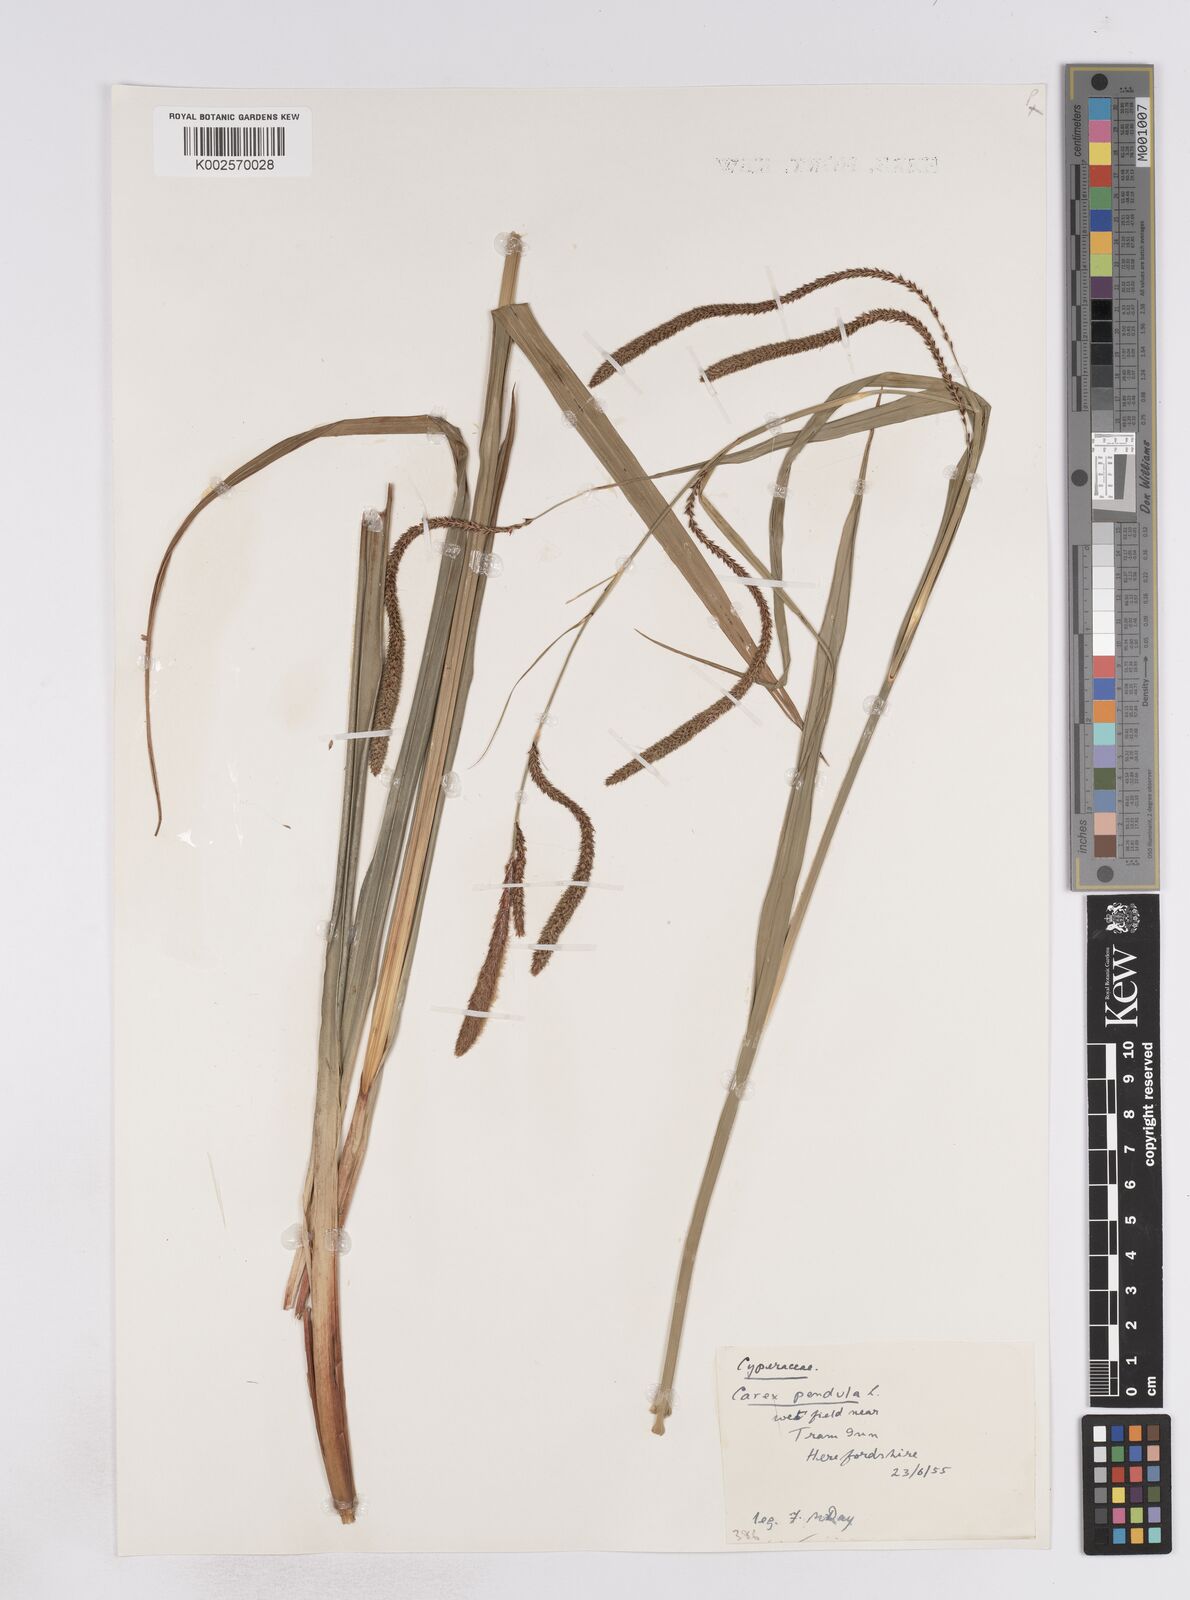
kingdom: Plantae
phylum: Tracheophyta
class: Liliopsida
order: Poales
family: Cyperaceae
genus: Carex
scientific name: Carex pendula
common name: Pendulous sedge
